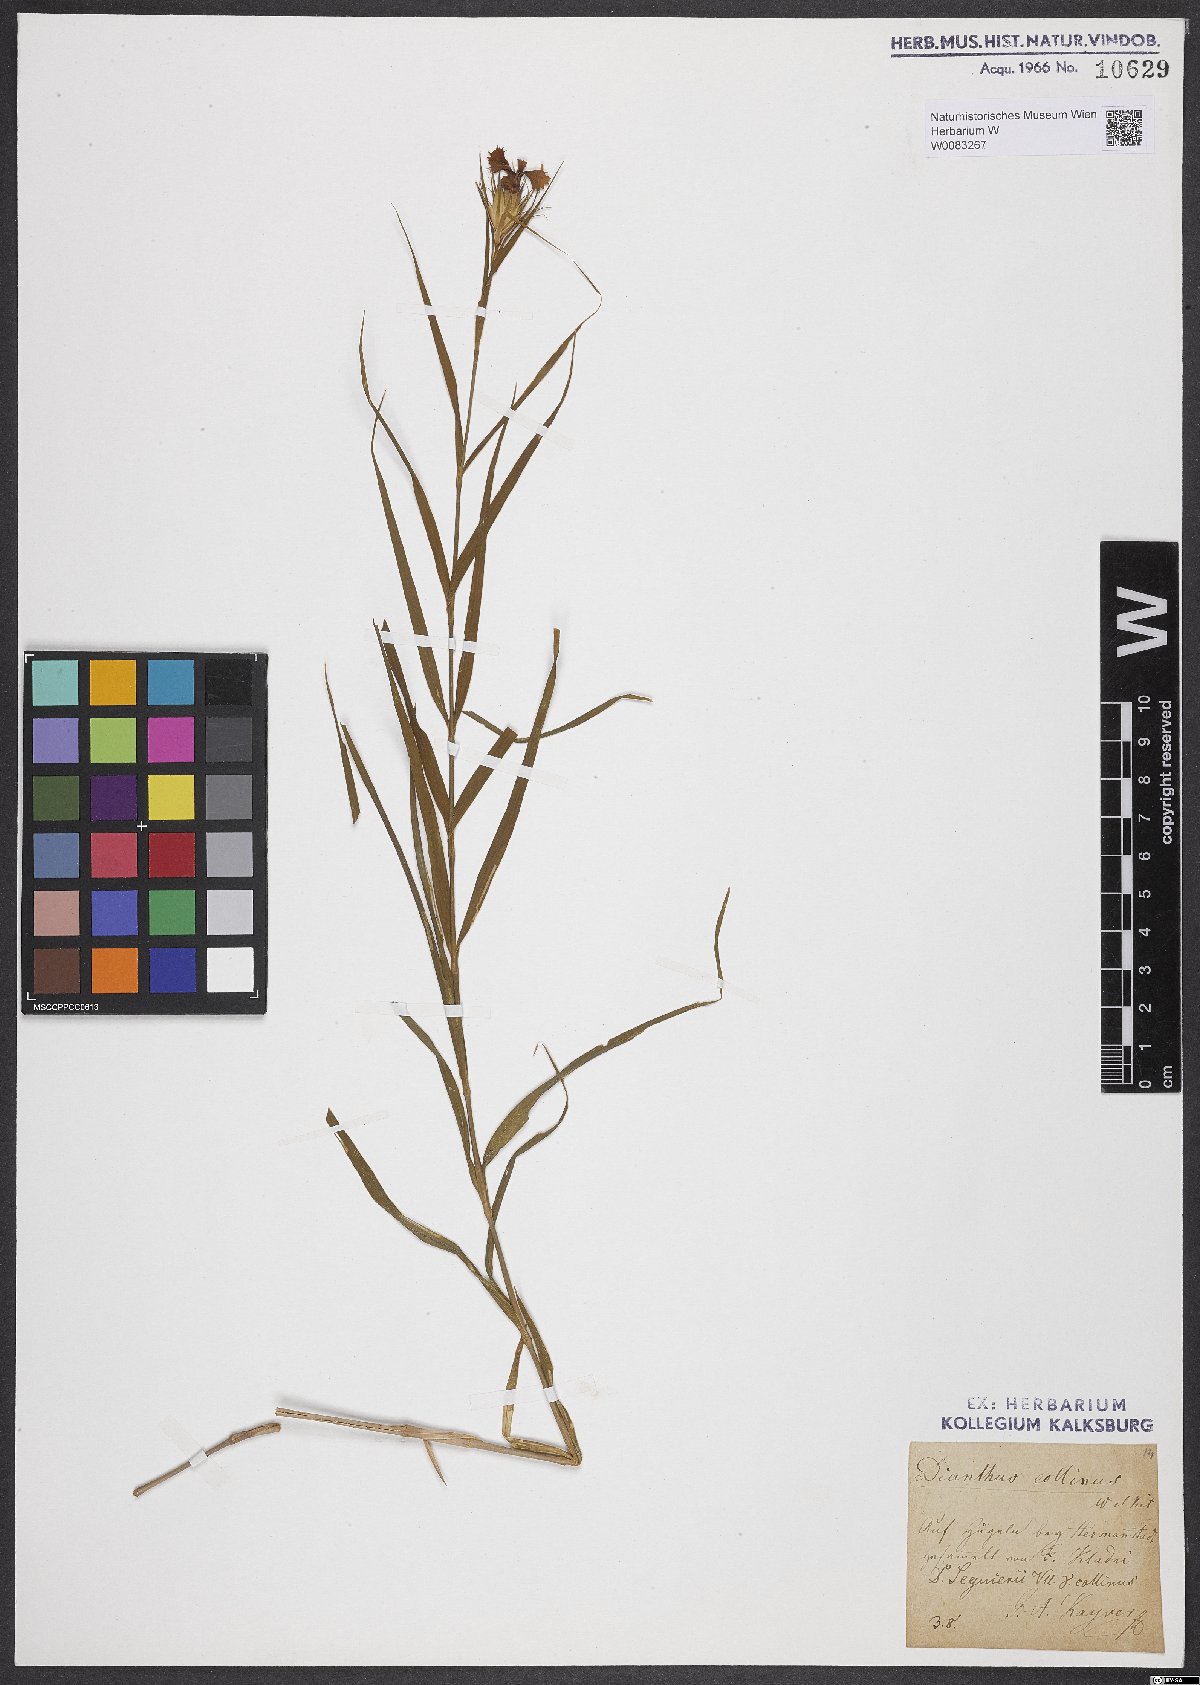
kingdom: Plantae
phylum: Tracheophyta
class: Magnoliopsida
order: Caryophyllales
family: Caryophyllaceae
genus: Dianthus
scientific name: Dianthus collinus
